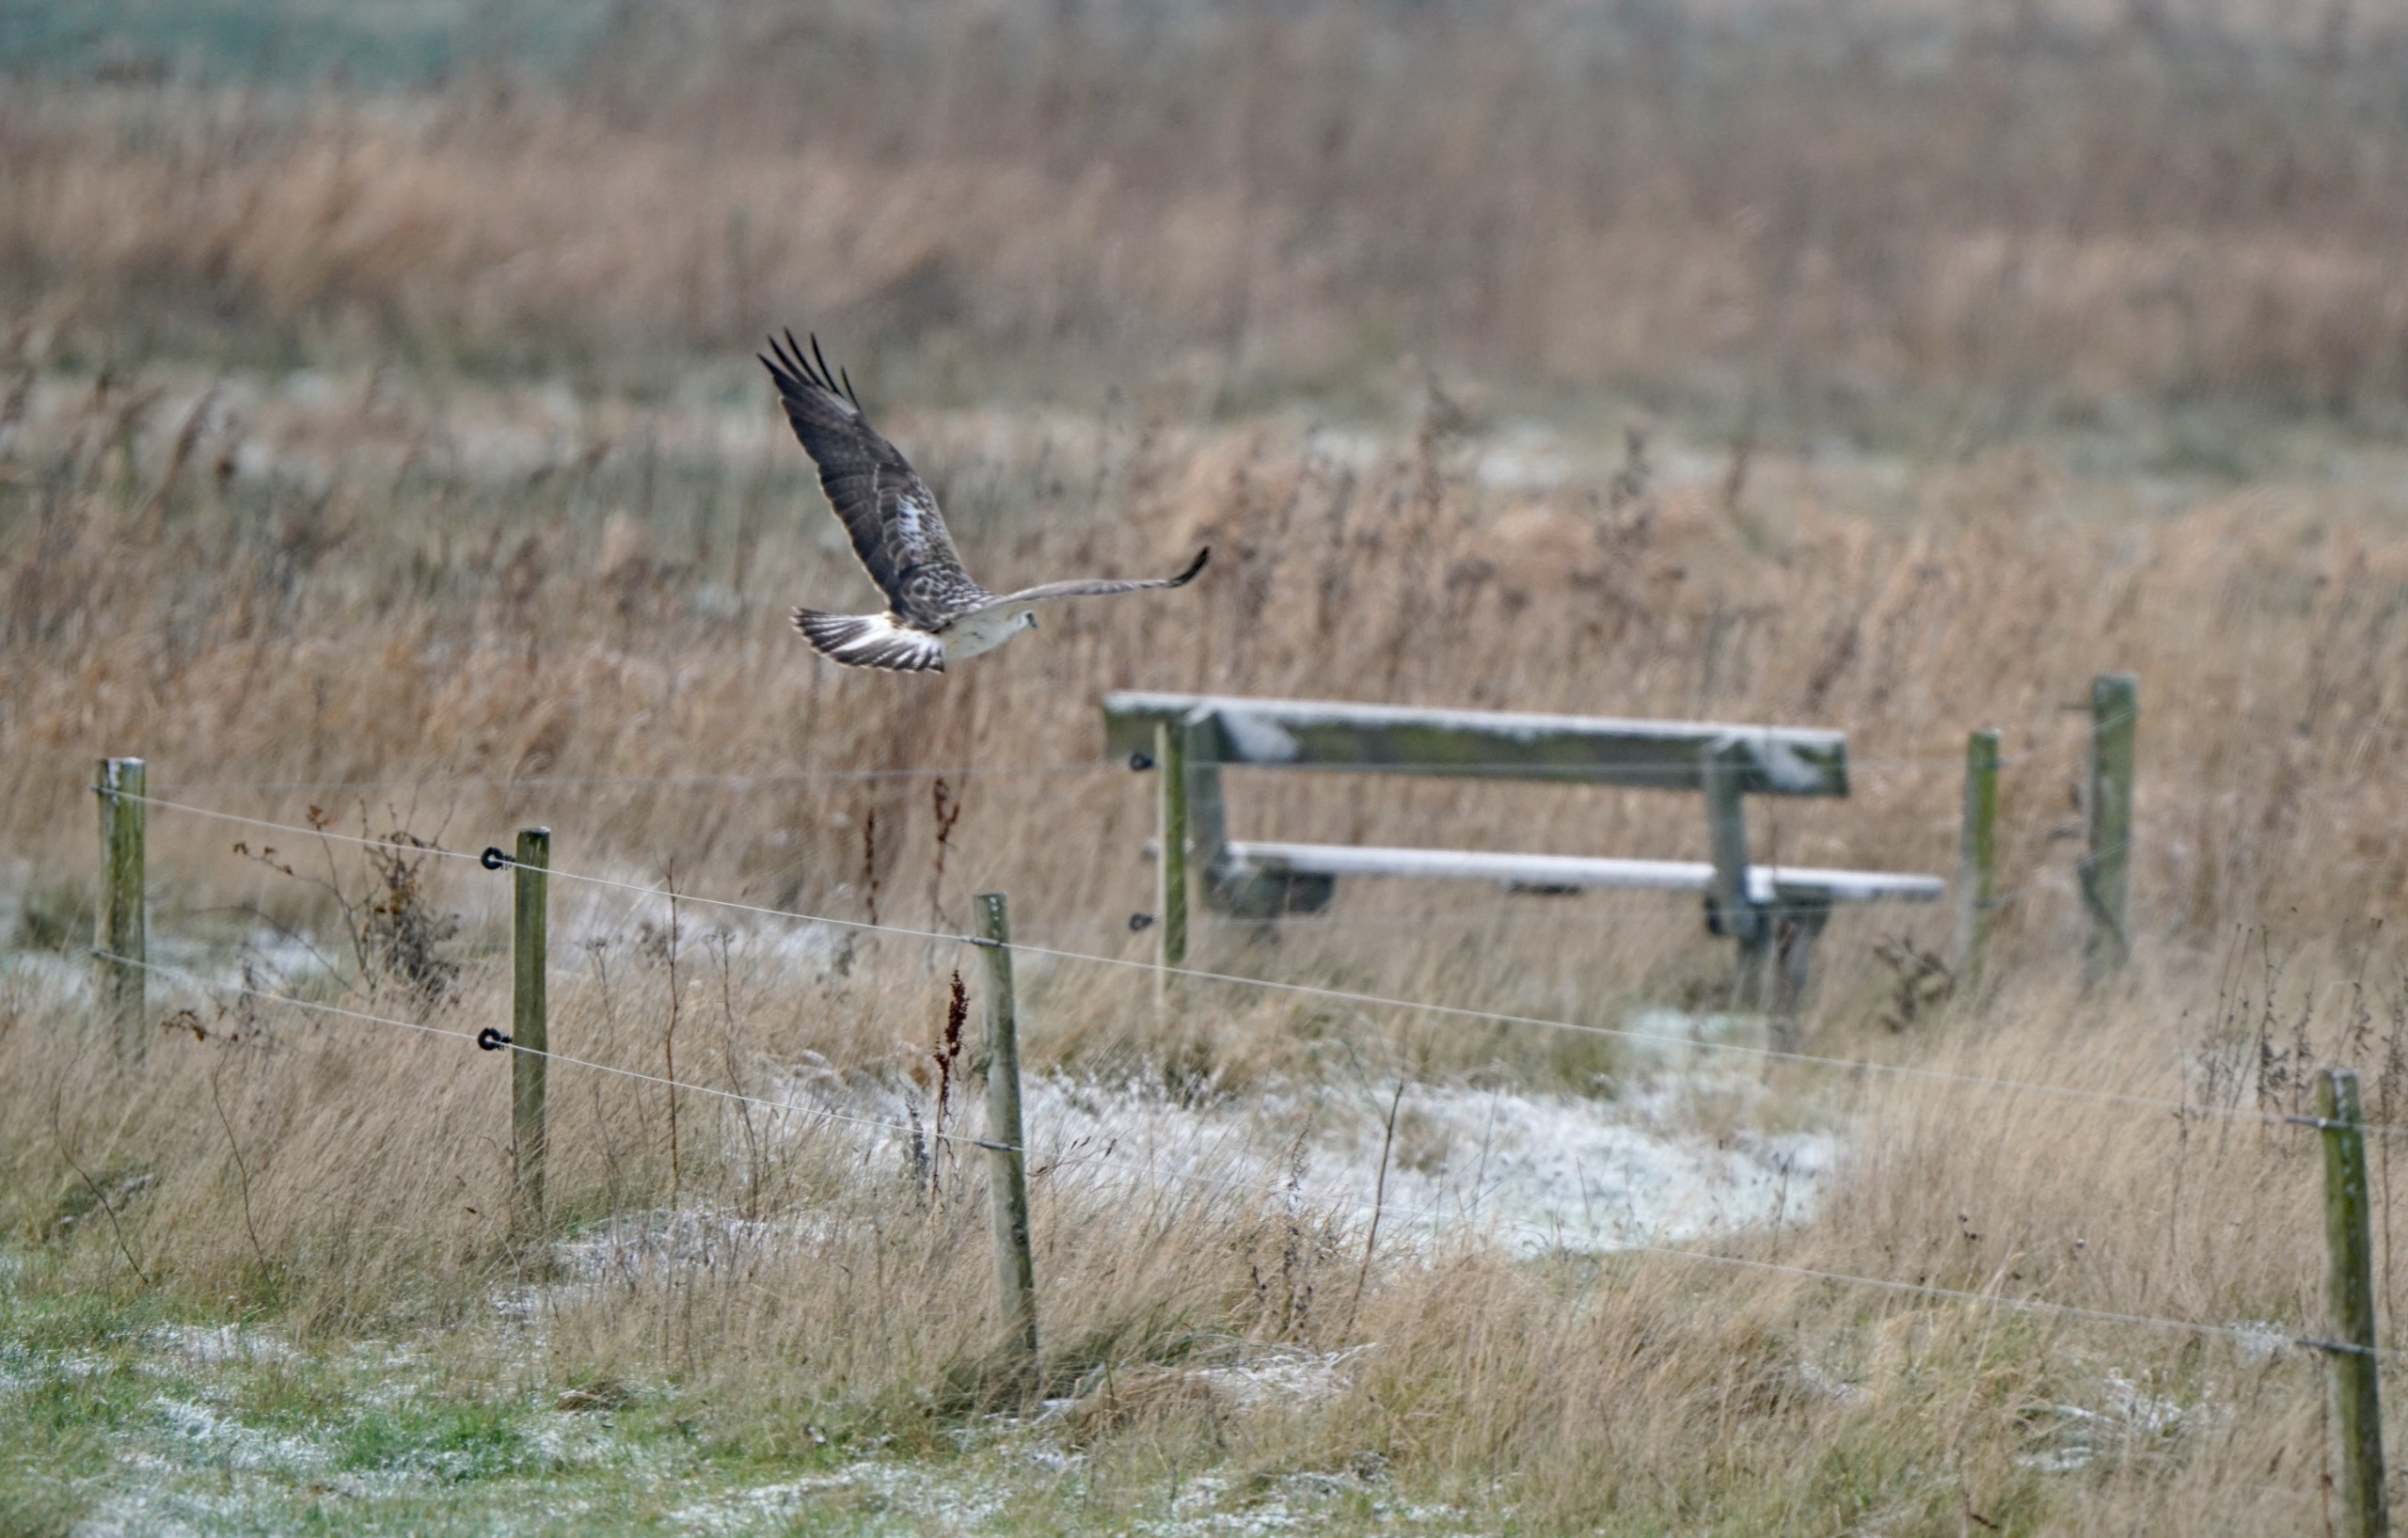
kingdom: Animalia
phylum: Chordata
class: Aves
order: Accipitriformes
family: Accipitridae
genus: Buteo
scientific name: Buteo buteo
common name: Musvåge
